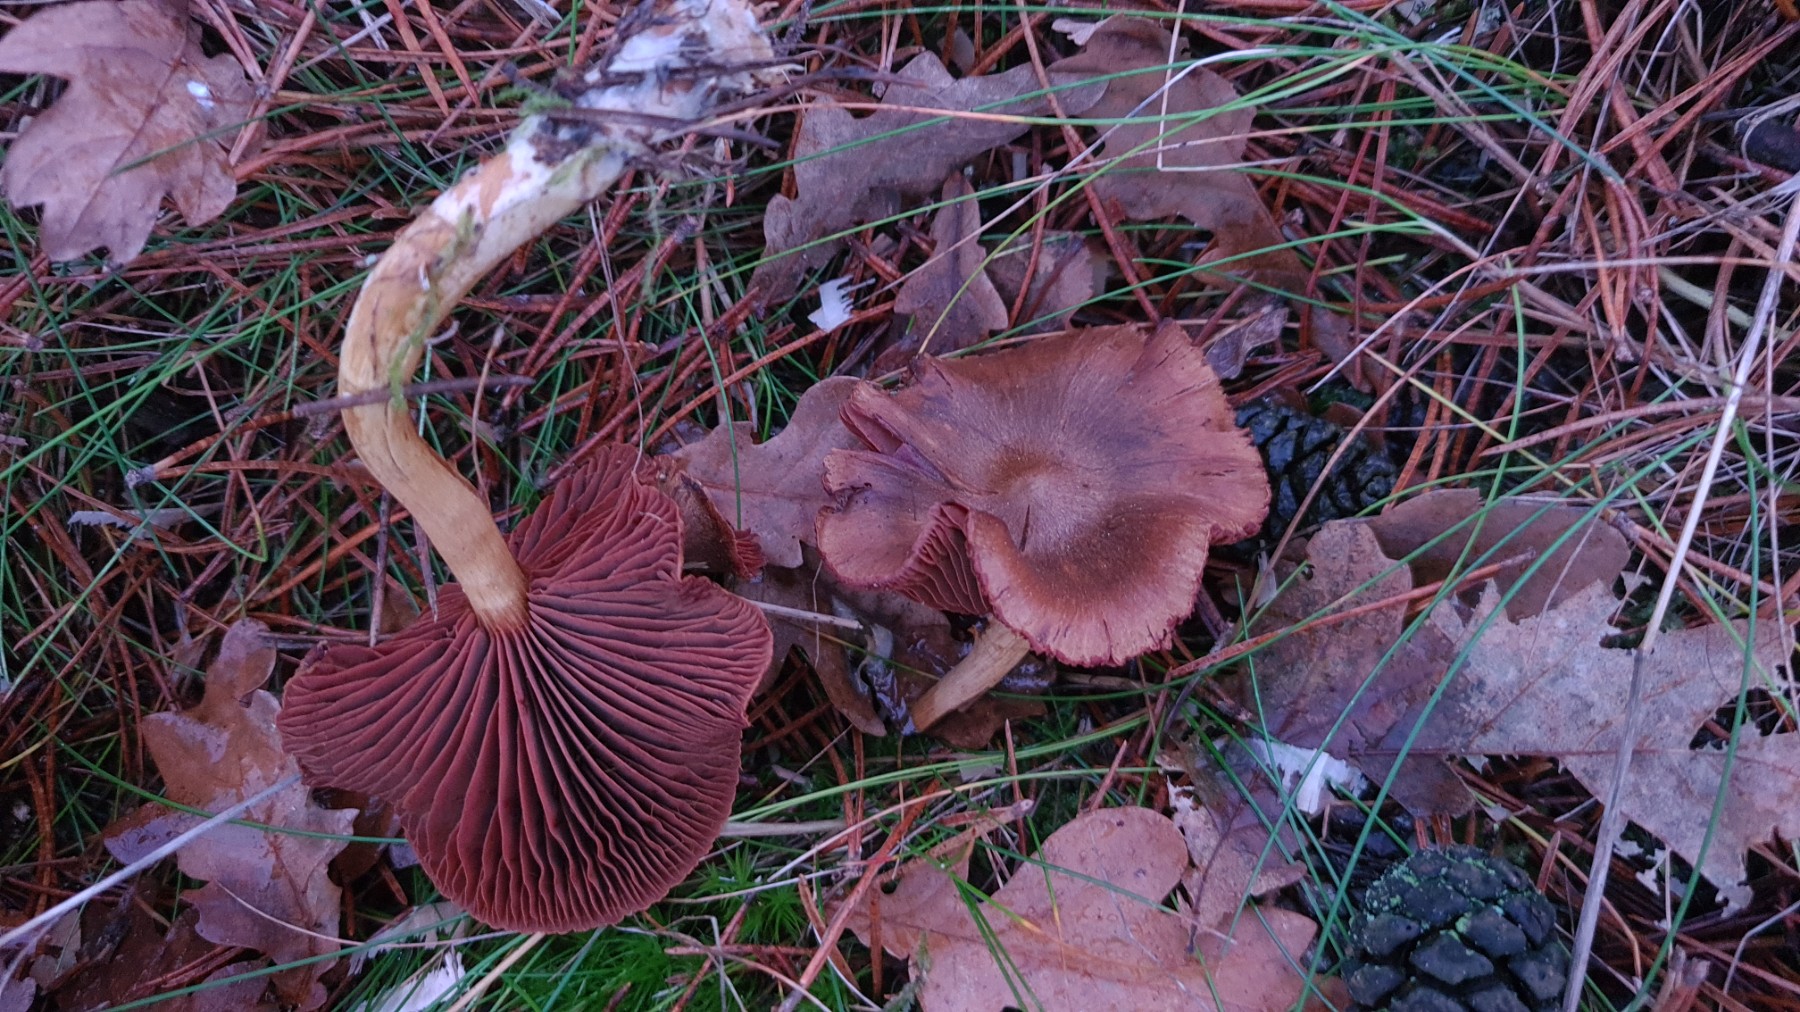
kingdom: Fungi
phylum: Basidiomycota
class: Agaricomycetes
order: Agaricales
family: Cortinariaceae
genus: Cortinarius
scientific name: Cortinarius
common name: cinnoberbladet slørhat
